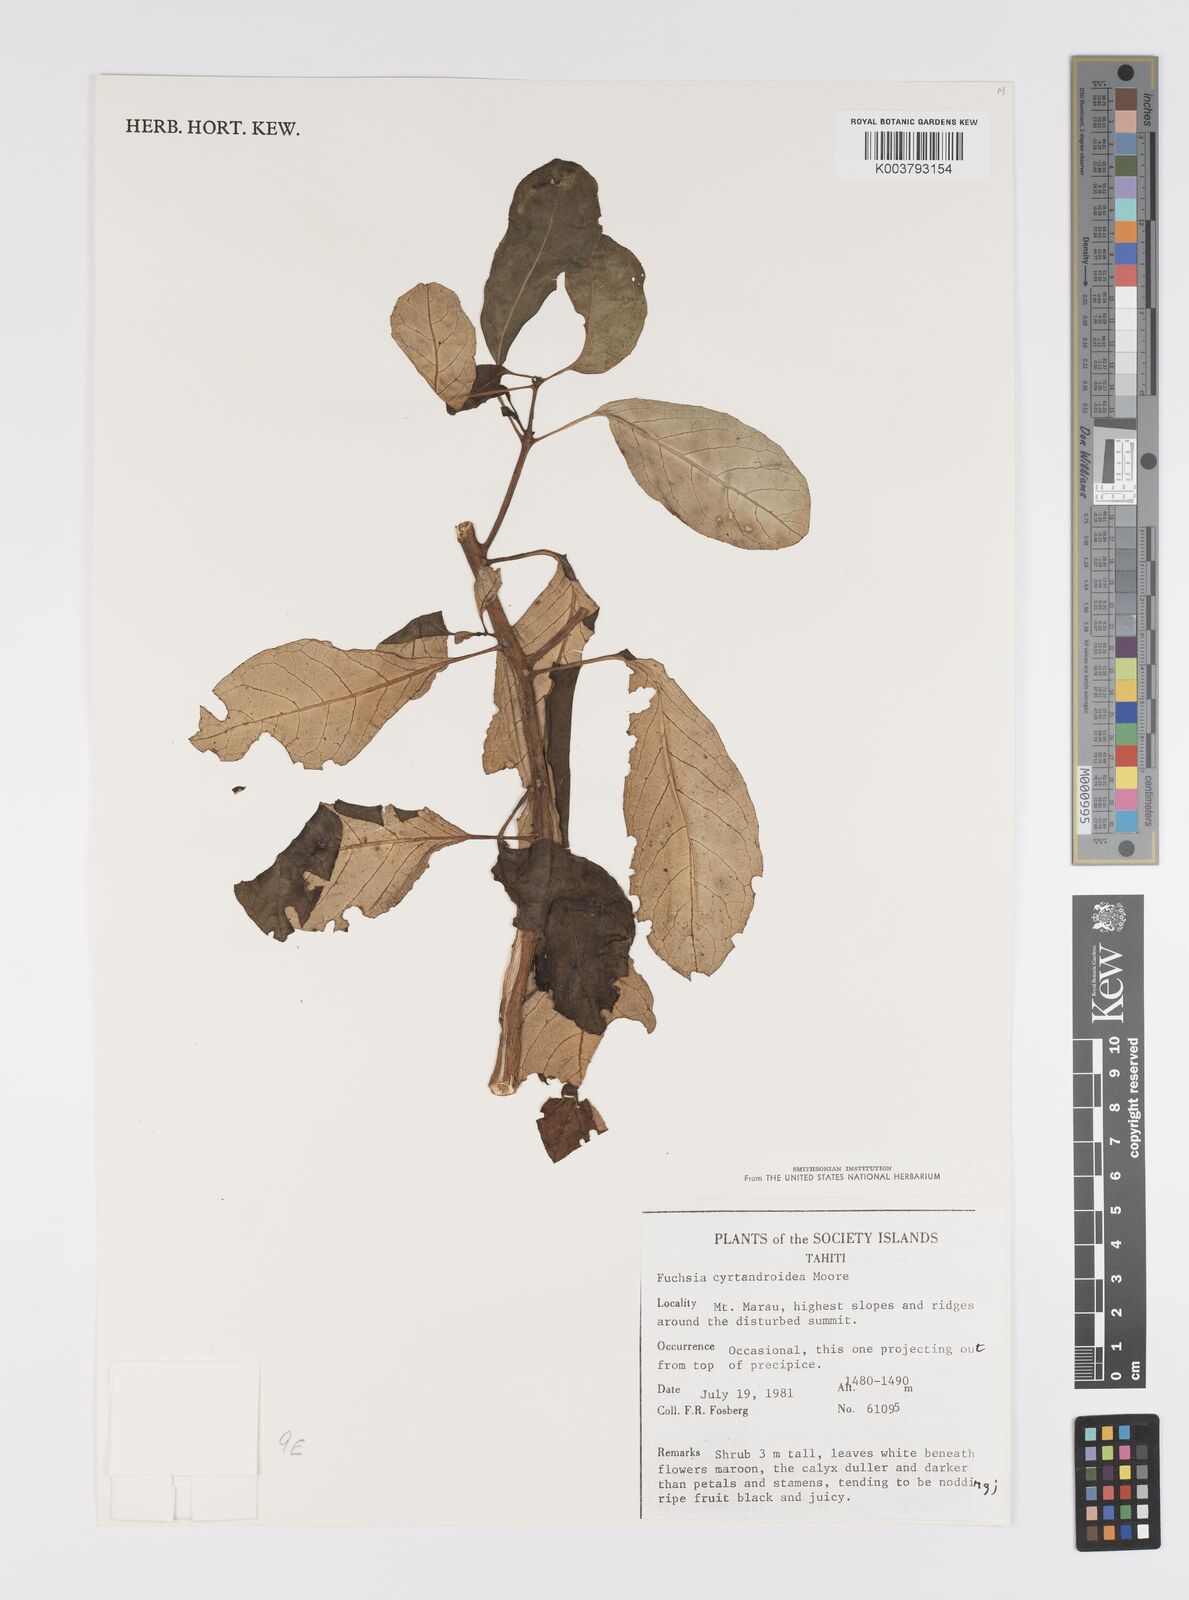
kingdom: Plantae
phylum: Tracheophyta
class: Magnoliopsida
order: Myrtales
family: Onagraceae
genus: Fuchsia
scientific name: Fuchsia cyrtandroides
